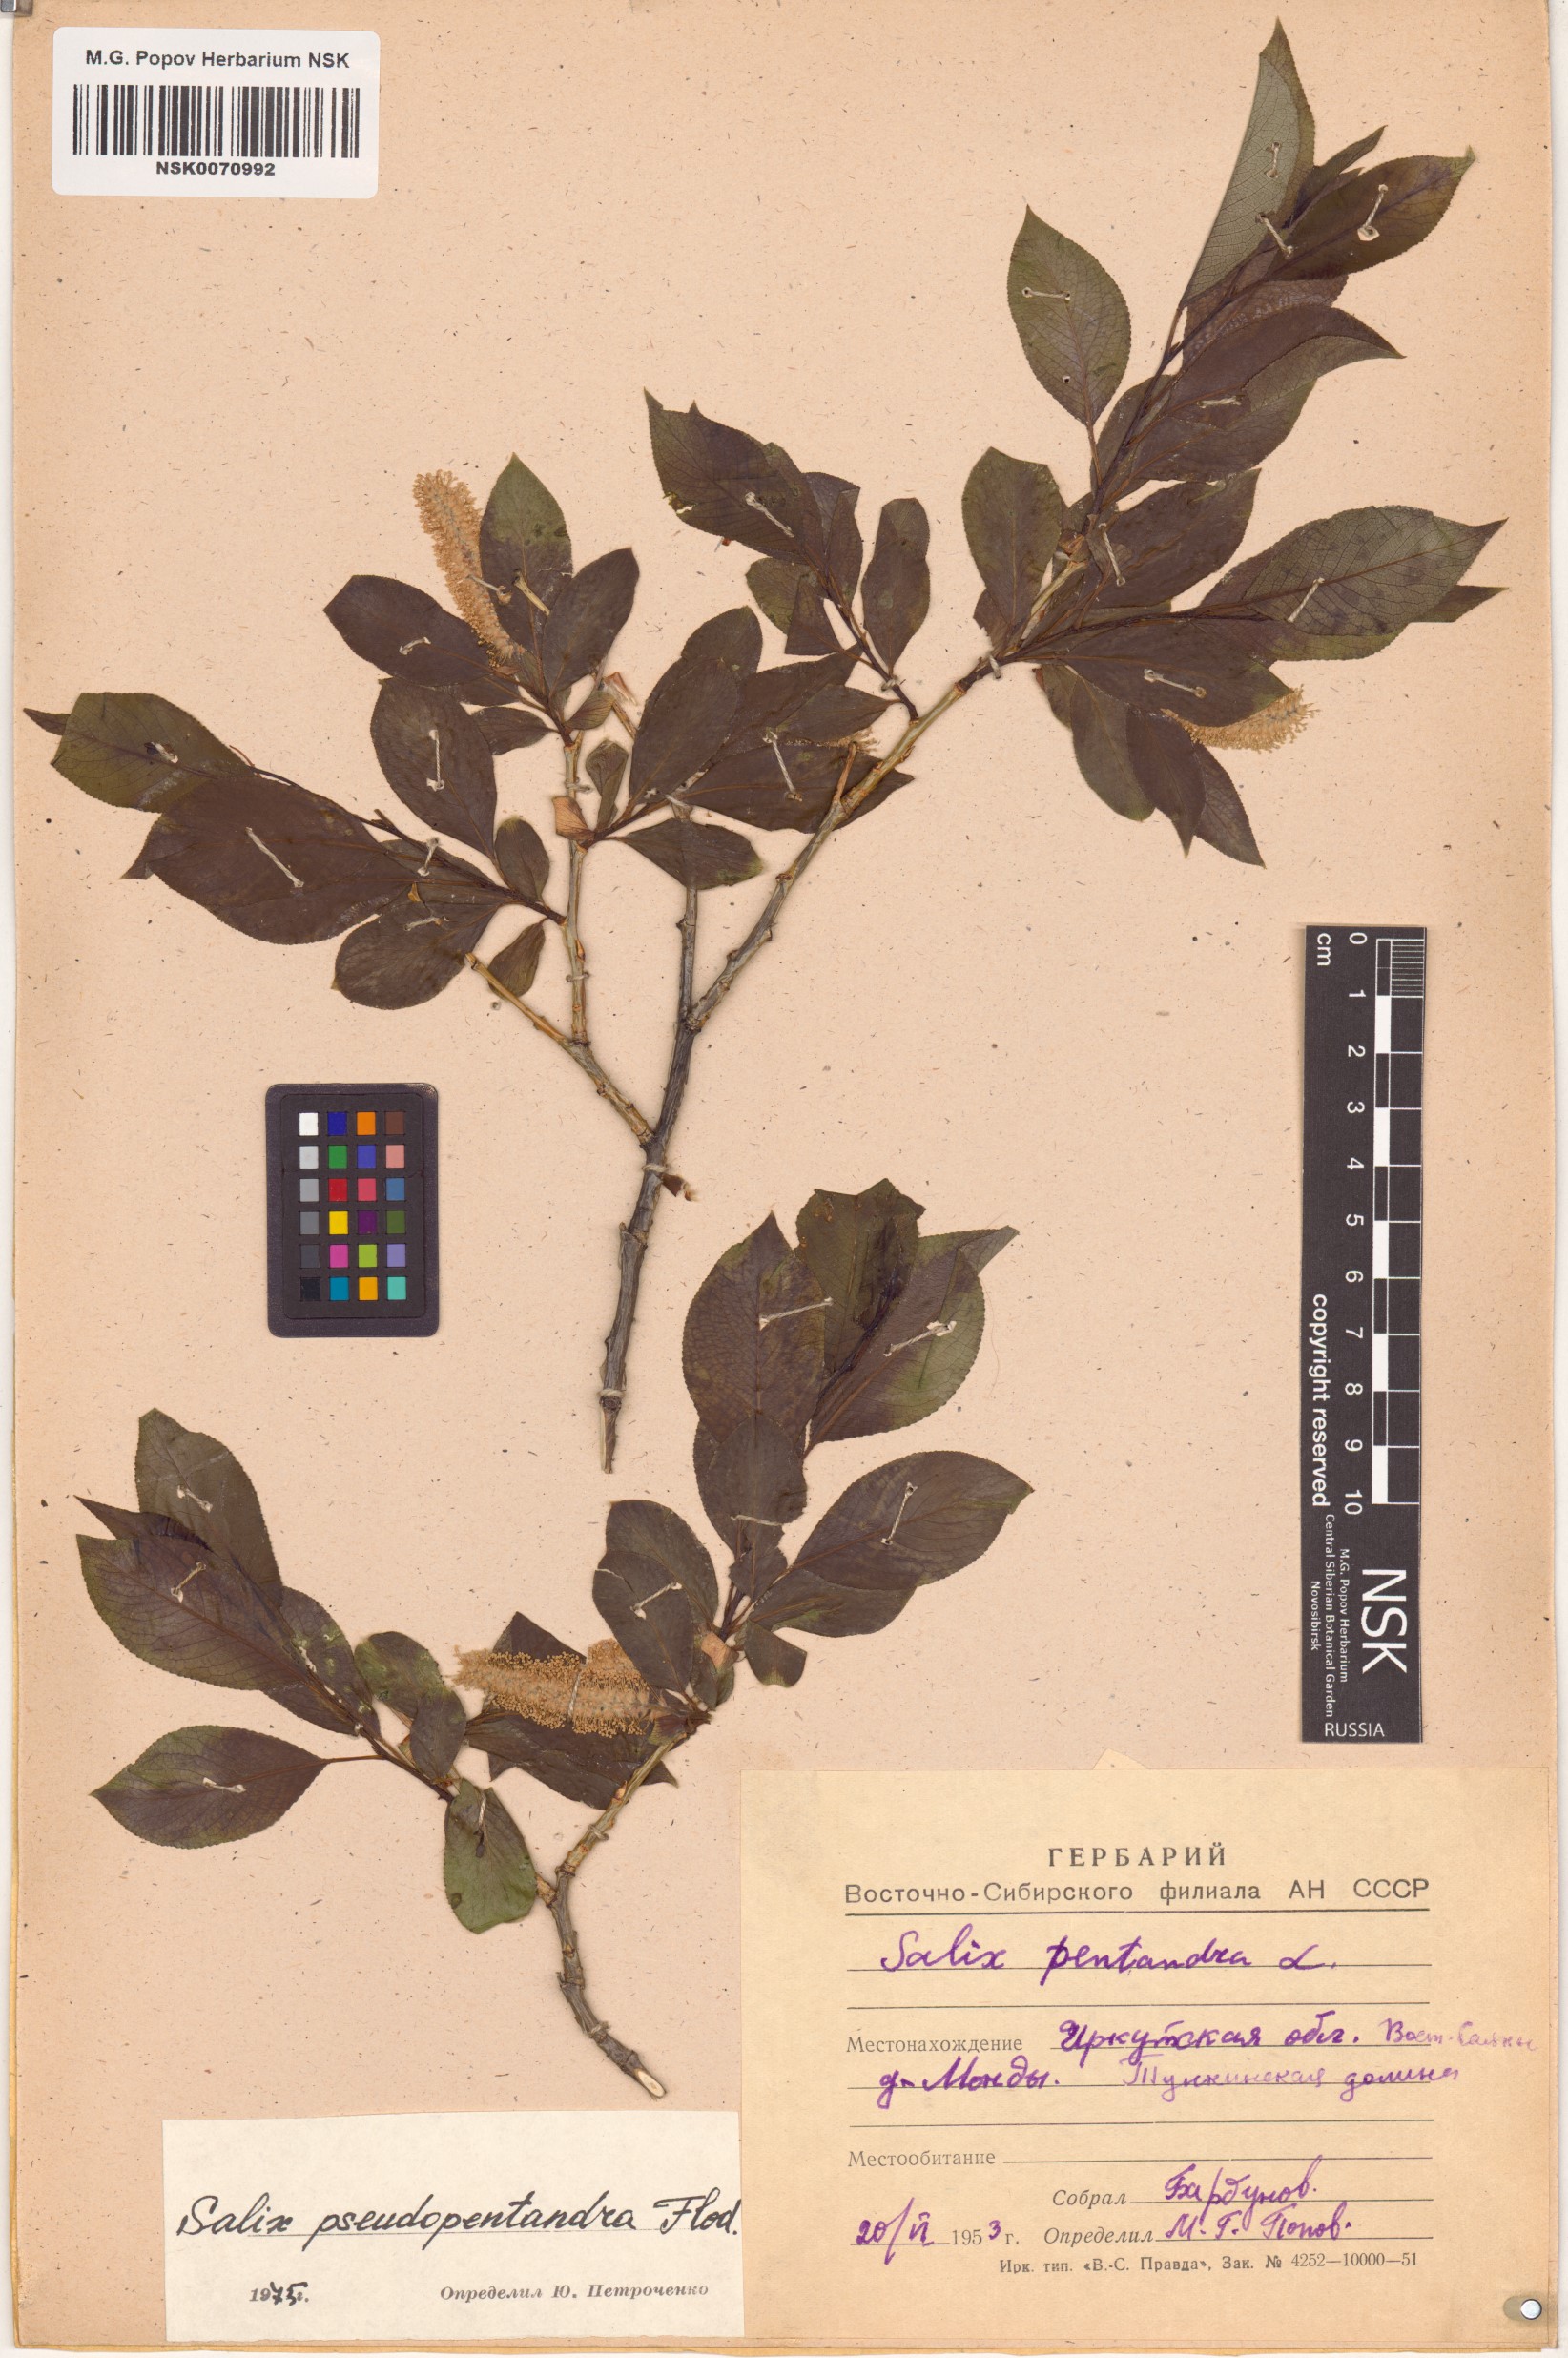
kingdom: Plantae
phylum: Tracheophyta
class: Magnoliopsida
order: Malpighiales
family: Salicaceae
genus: Salix
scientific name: Salix pseudopentandra
